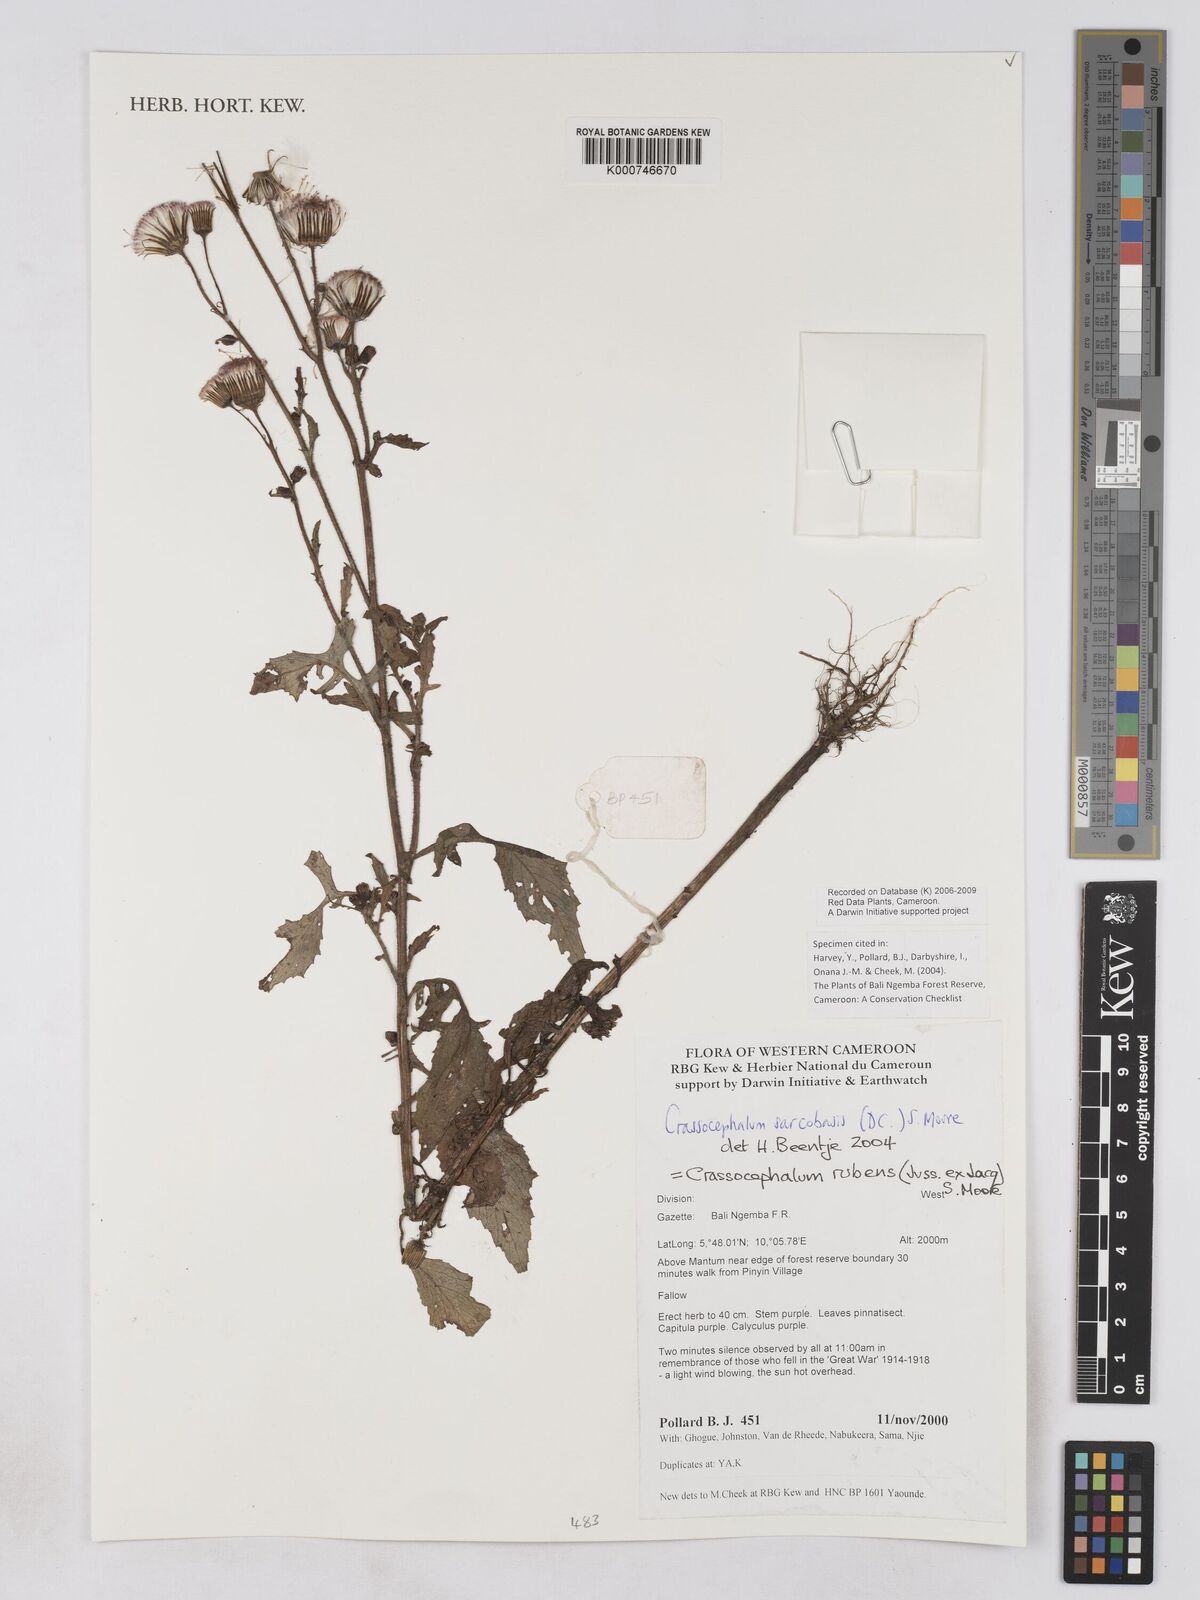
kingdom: Plantae
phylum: Tracheophyta
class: Magnoliopsida
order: Asterales
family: Asteraceae
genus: Crassocephalum
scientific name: Crassocephalum rubens
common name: Yoruban bologi
